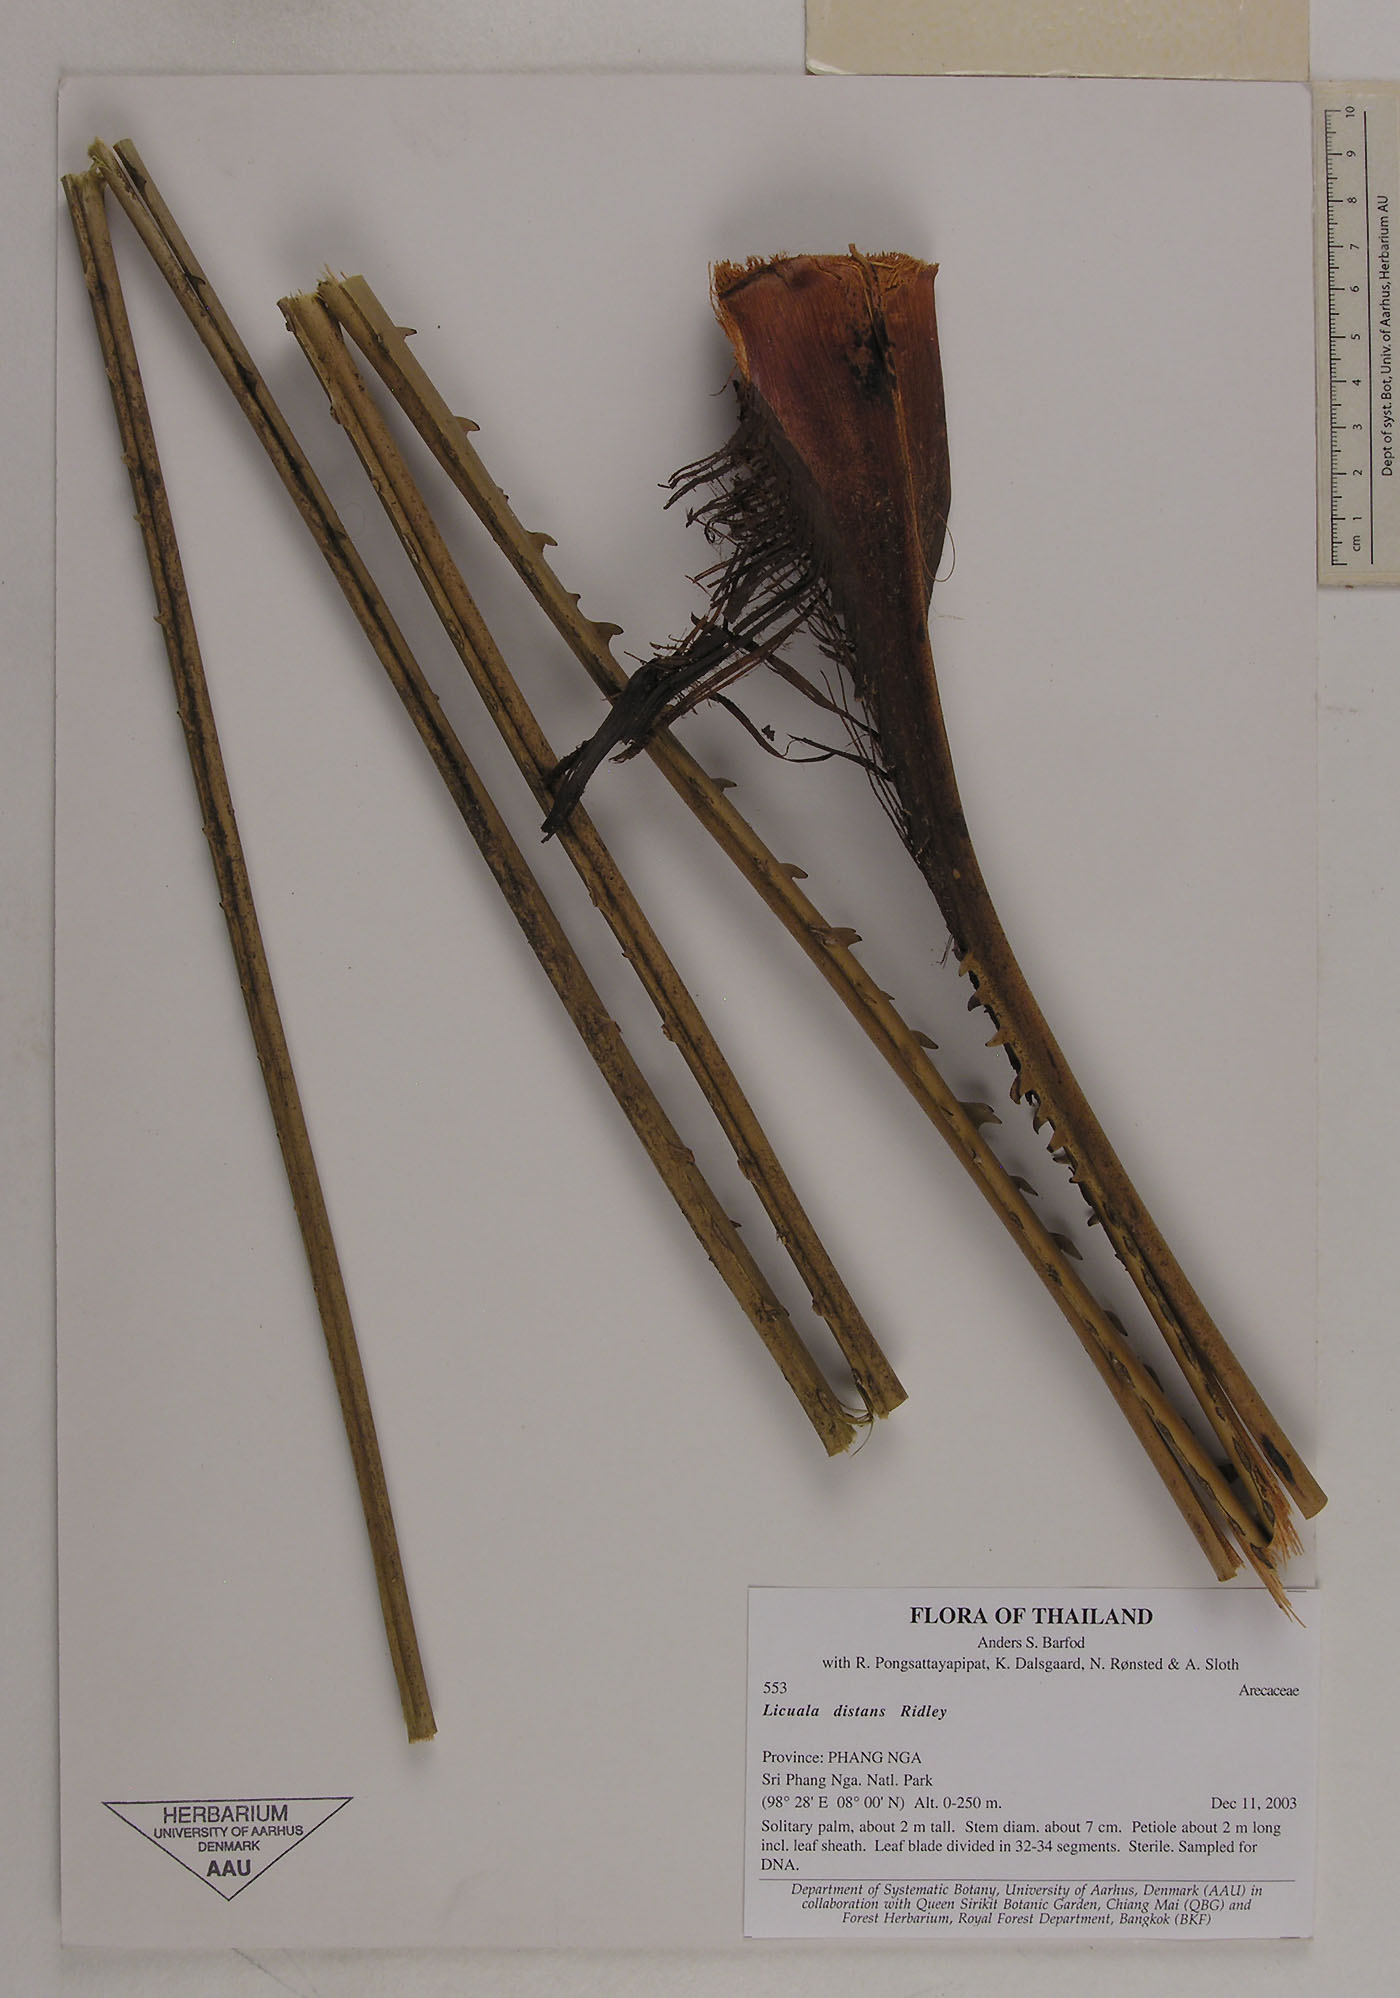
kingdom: Plantae
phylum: Tracheophyta
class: Liliopsida
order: Arecales
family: Arecaceae
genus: Licuala
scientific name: Licuala distans
